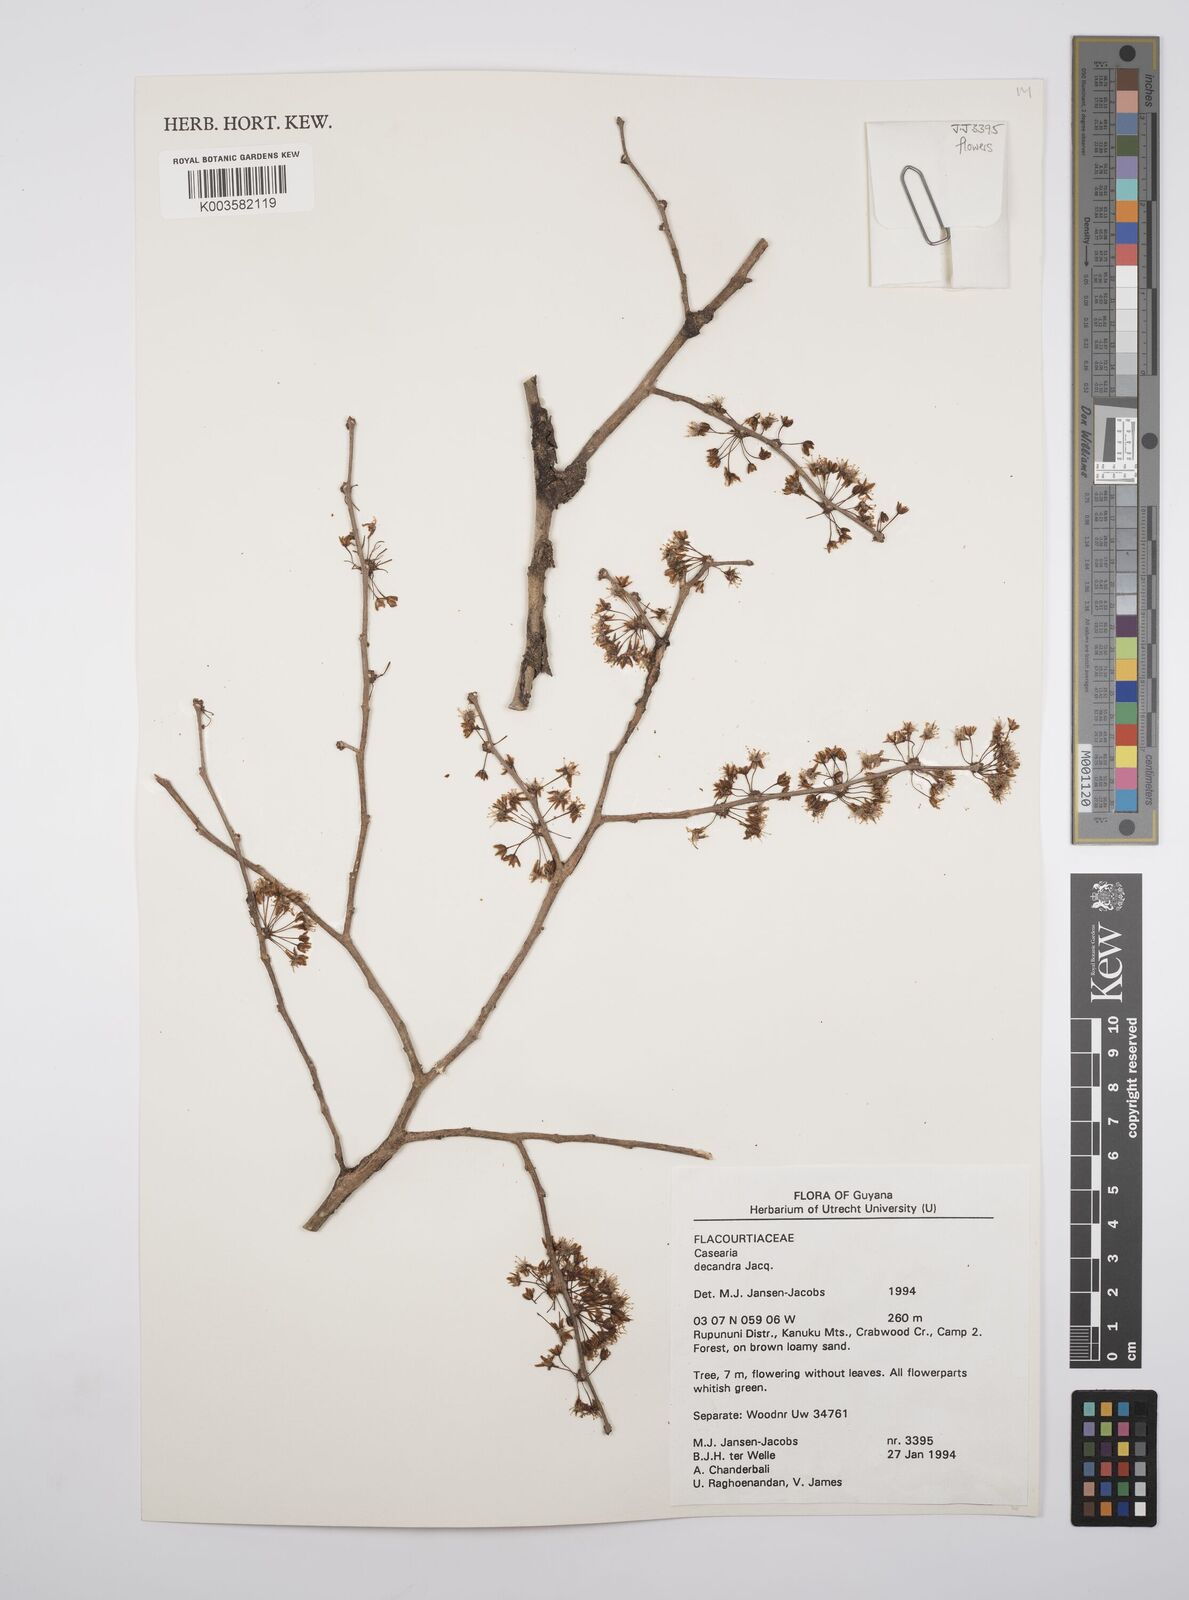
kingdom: Plantae
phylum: Tracheophyta
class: Magnoliopsida
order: Malpighiales
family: Salicaceae
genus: Casearia
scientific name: Casearia decandra
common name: Crack open
